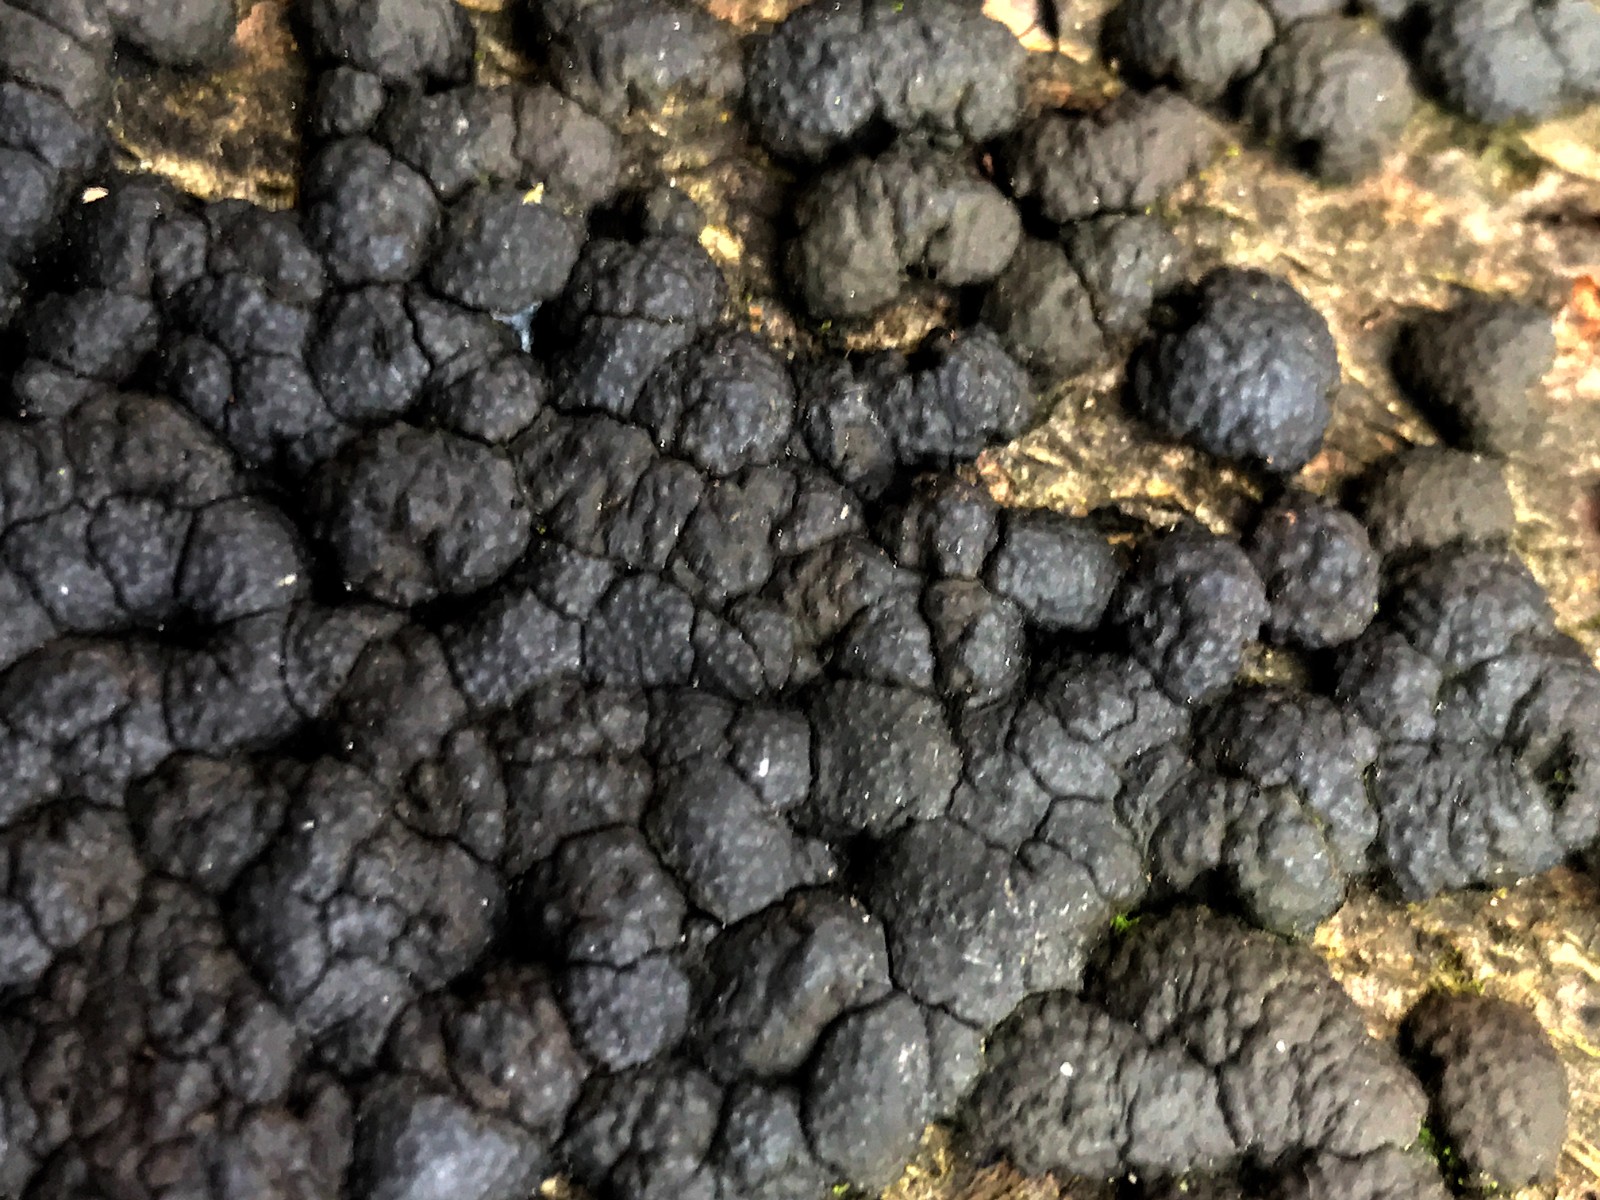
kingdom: Fungi
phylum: Ascomycota
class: Sordariomycetes
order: Xylariales
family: Hypoxylaceae
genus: Hypoxylon
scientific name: Hypoxylon fragiforme
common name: kuljordbær
